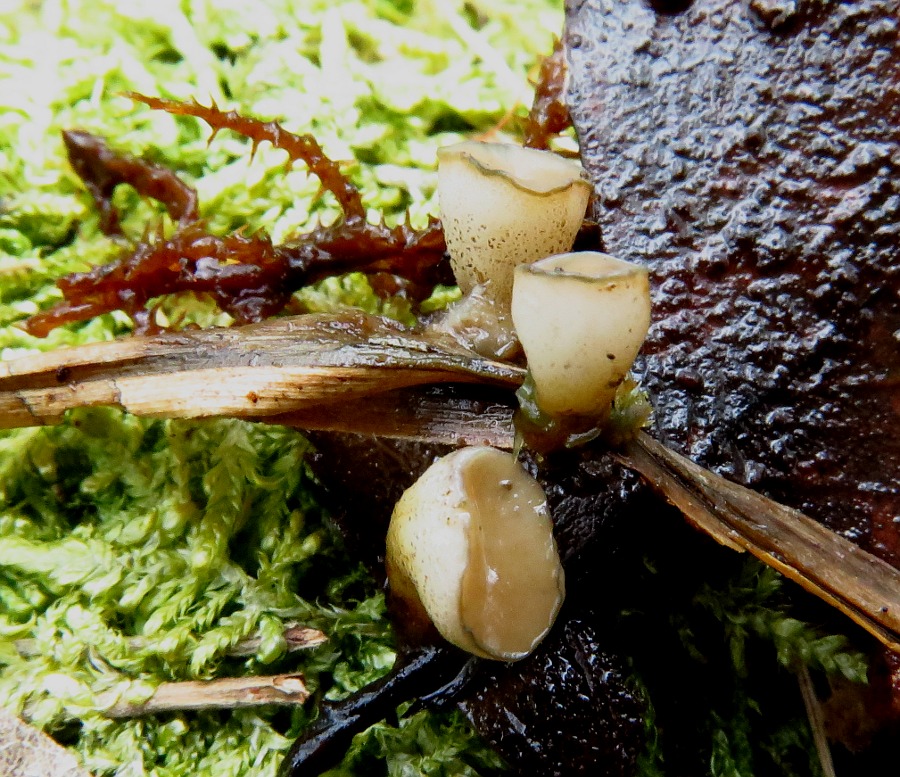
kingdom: Fungi
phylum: Ascomycota
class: Leotiomycetes
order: Helotiales
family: Tricladiaceae
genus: Cudoniella
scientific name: Cudoniella tenuispora
